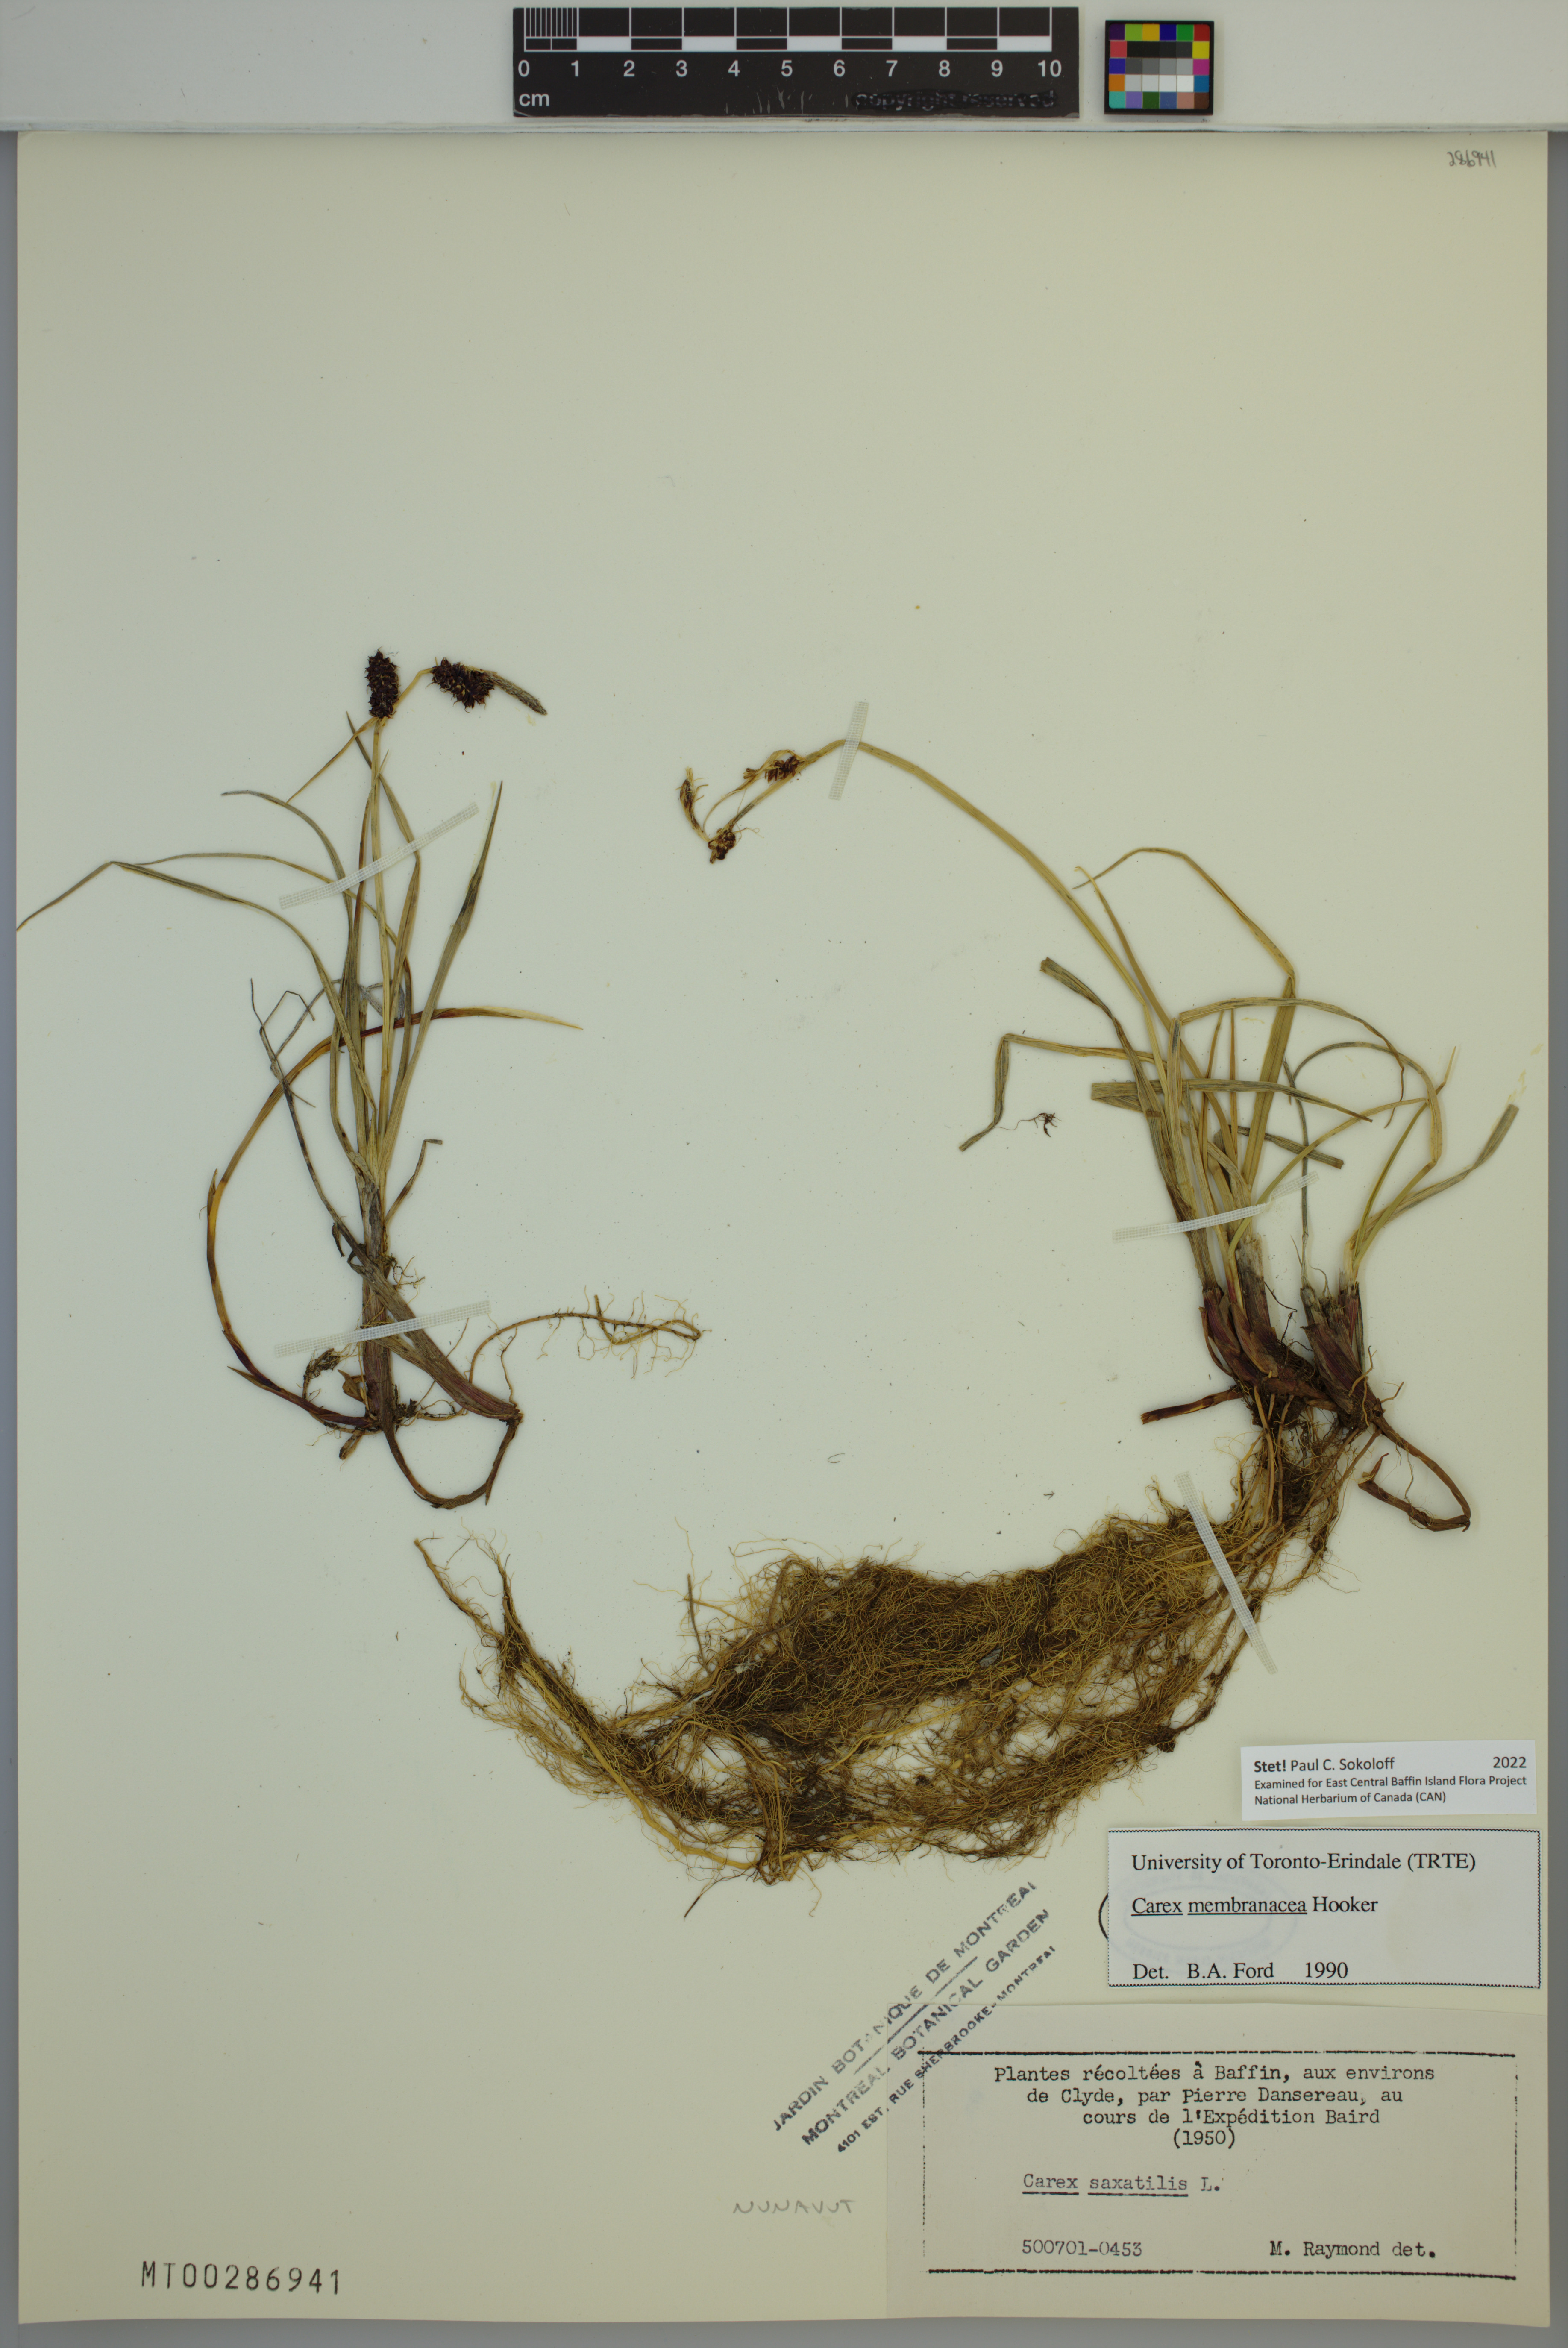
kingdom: Plantae
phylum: Tracheophyta
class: Liliopsida
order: Poales
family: Cyperaceae
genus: Carex
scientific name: Carex membranacea
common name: Fragile sedge
